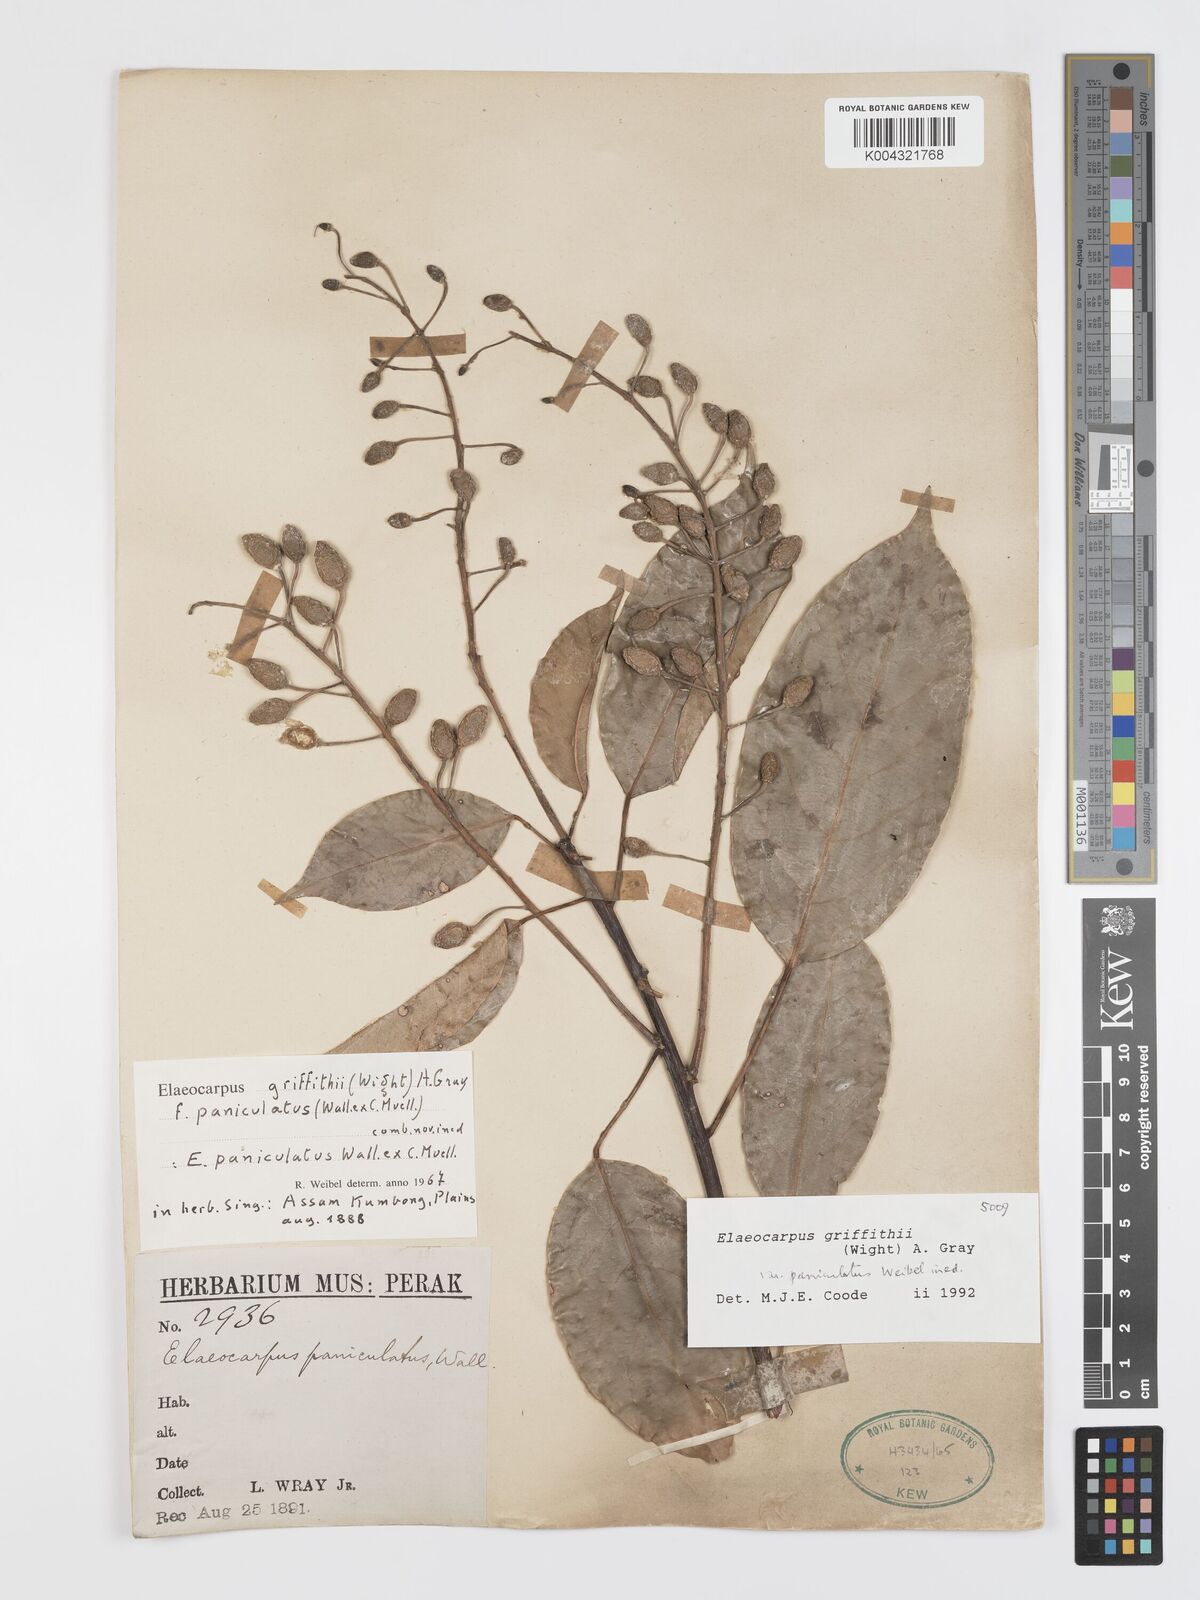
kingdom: Plantae
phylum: Tracheophyta
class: Magnoliopsida
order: Oxalidales
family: Elaeocarpaceae
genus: Elaeocarpus
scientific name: Elaeocarpus griffithii
